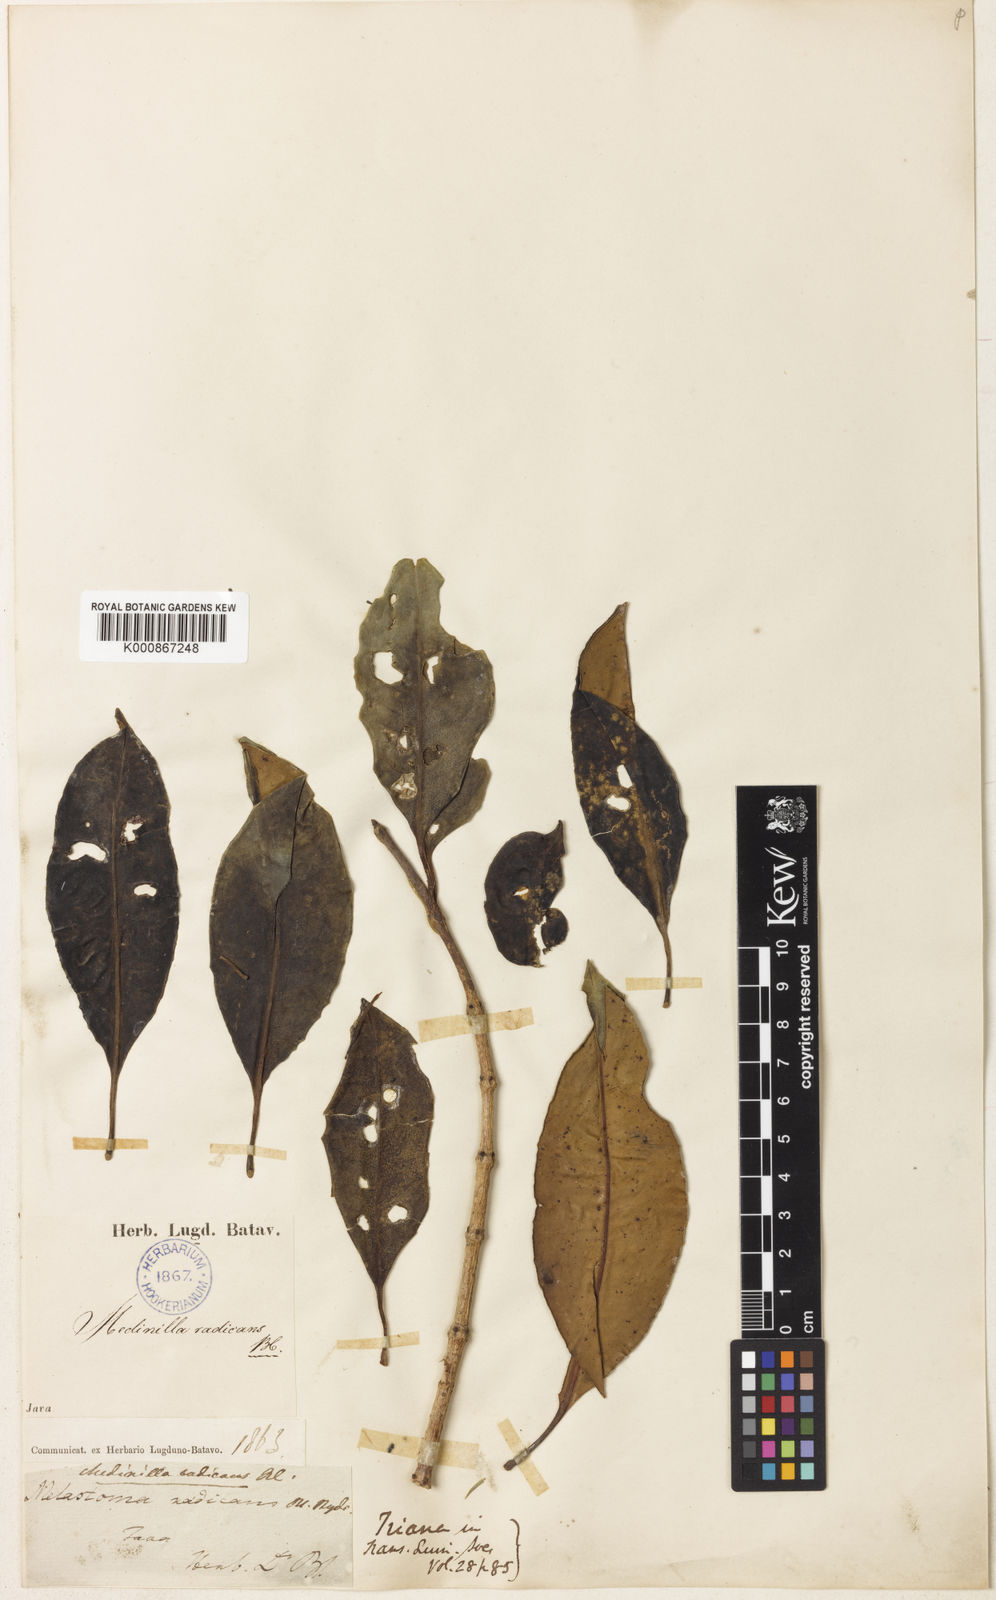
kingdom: Plantae
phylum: Tracheophyta
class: Magnoliopsida
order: Myrtales
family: Melastomataceae
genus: Medinilla
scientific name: Medinilla radicans
